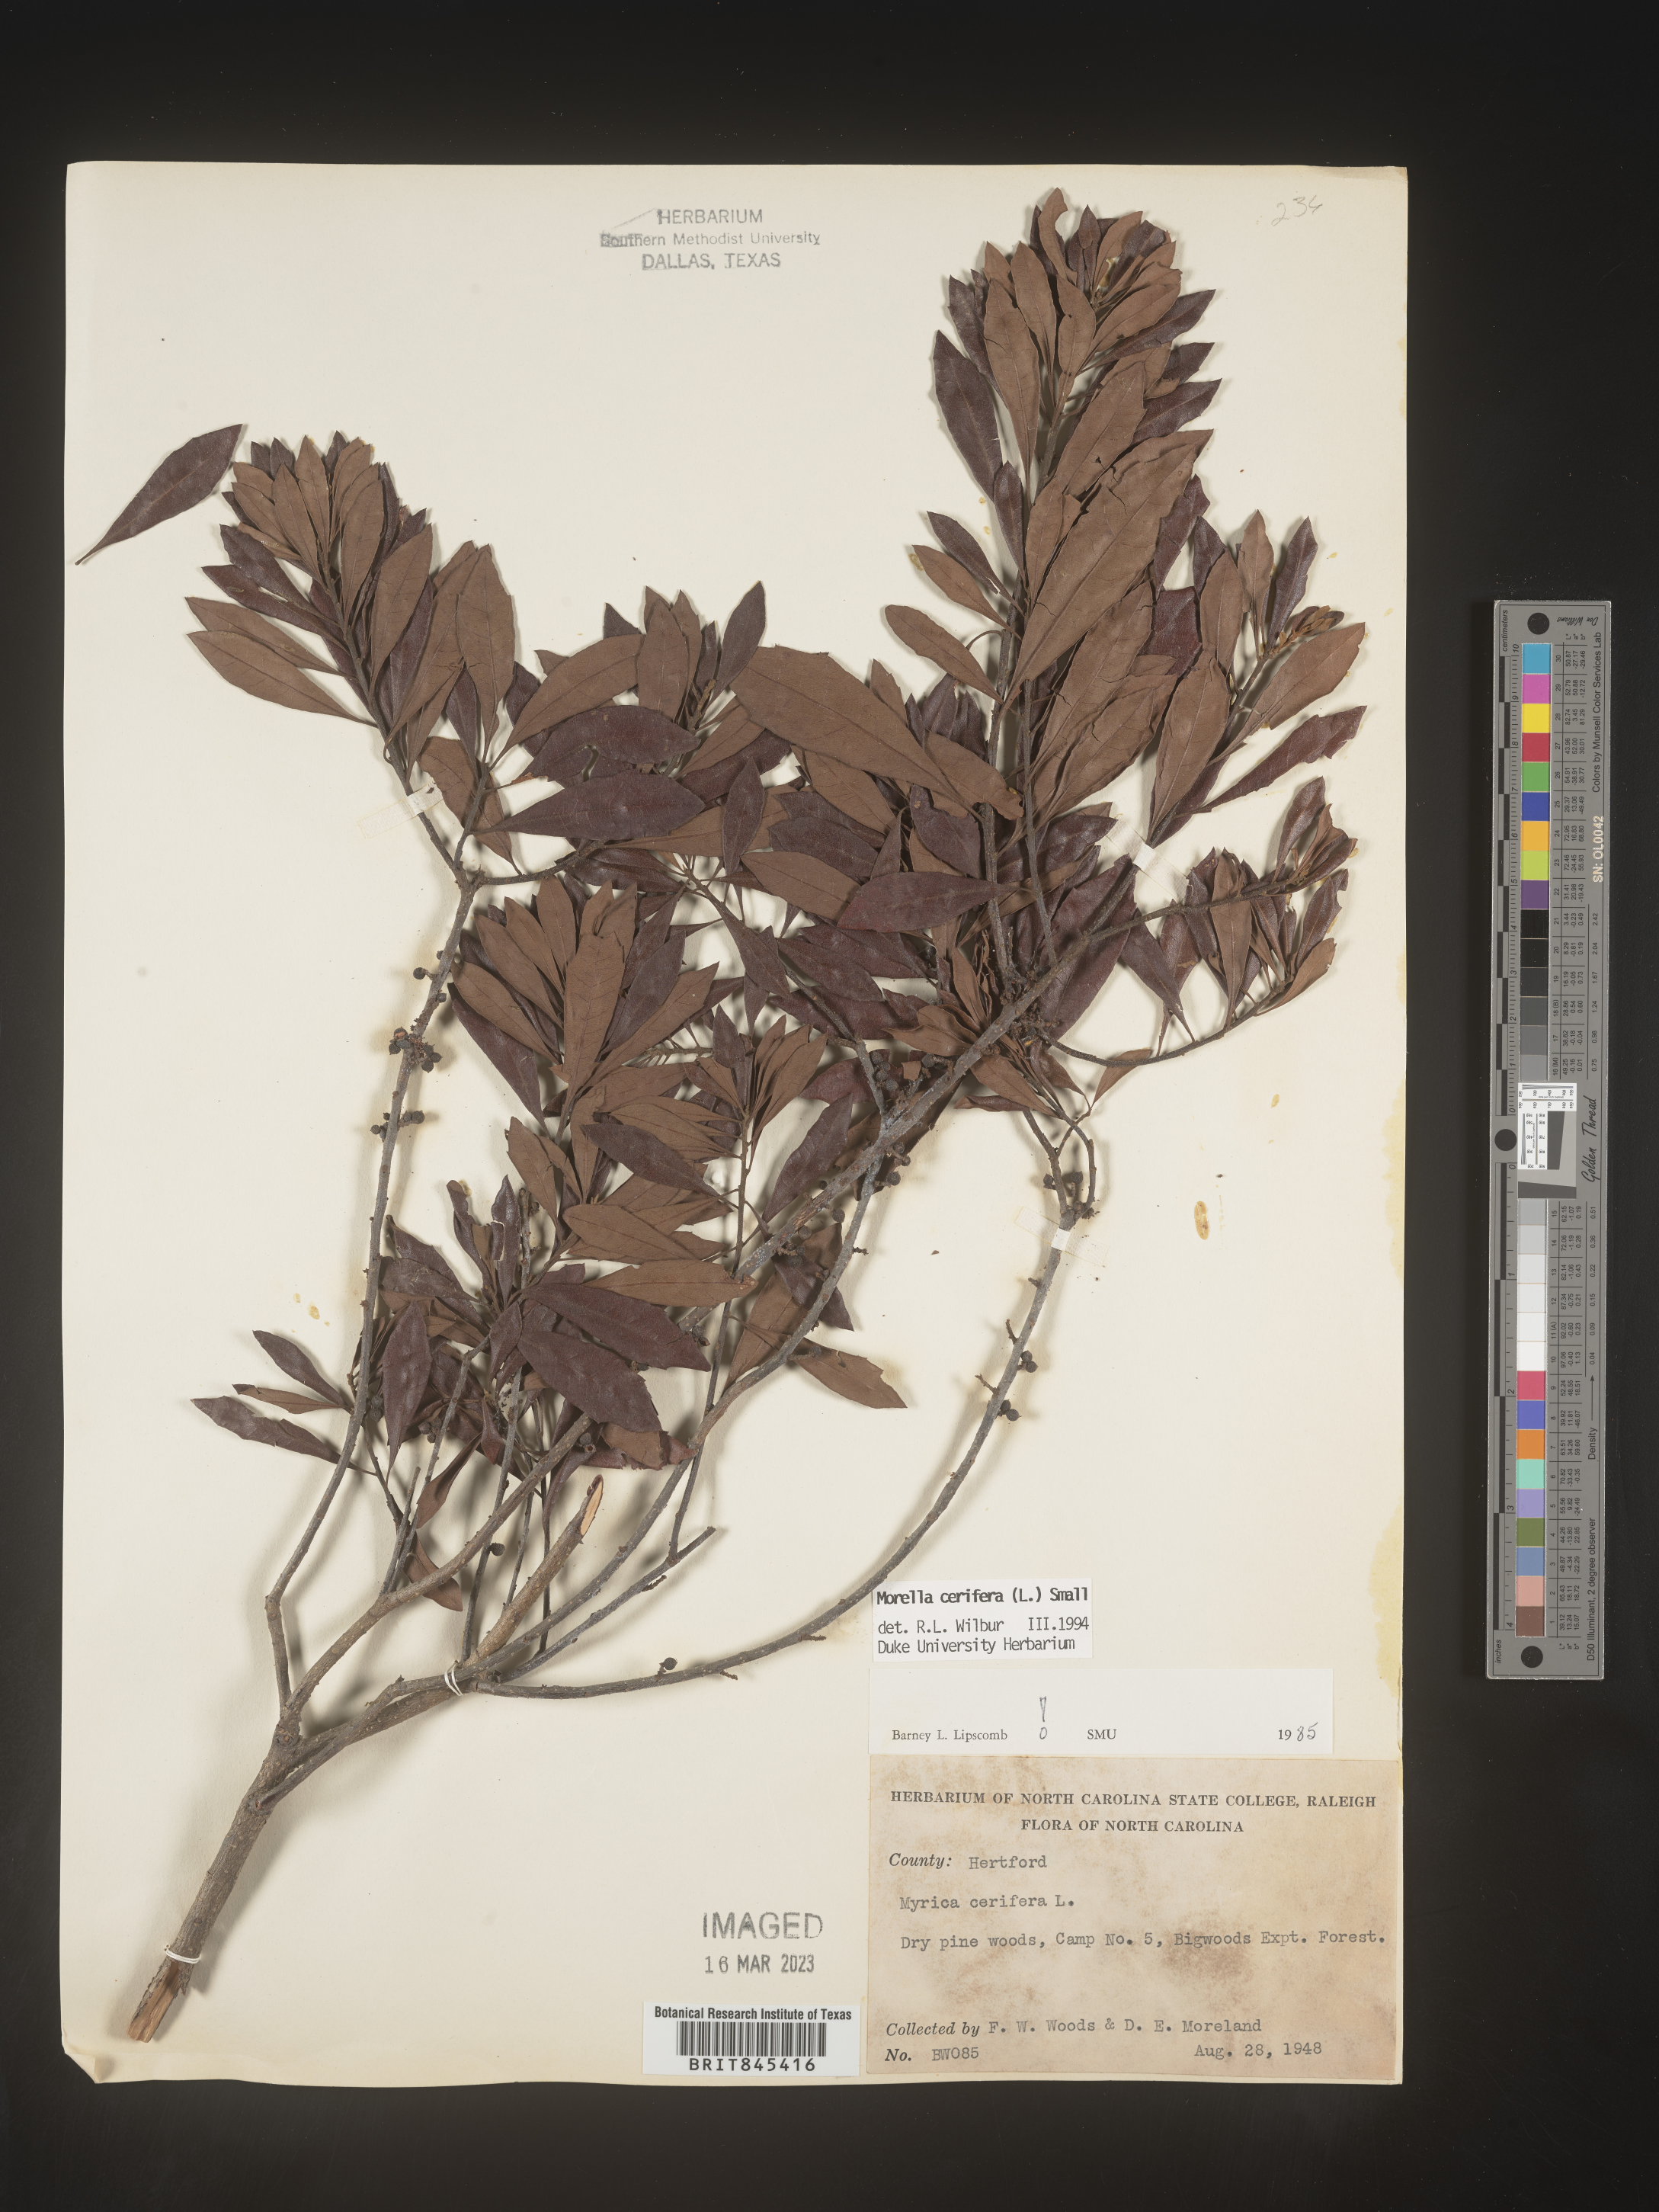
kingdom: Plantae
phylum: Tracheophyta
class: Magnoliopsida
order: Fagales
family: Myricaceae
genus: Morella
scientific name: Morella cerifera
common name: Wax myrtle
